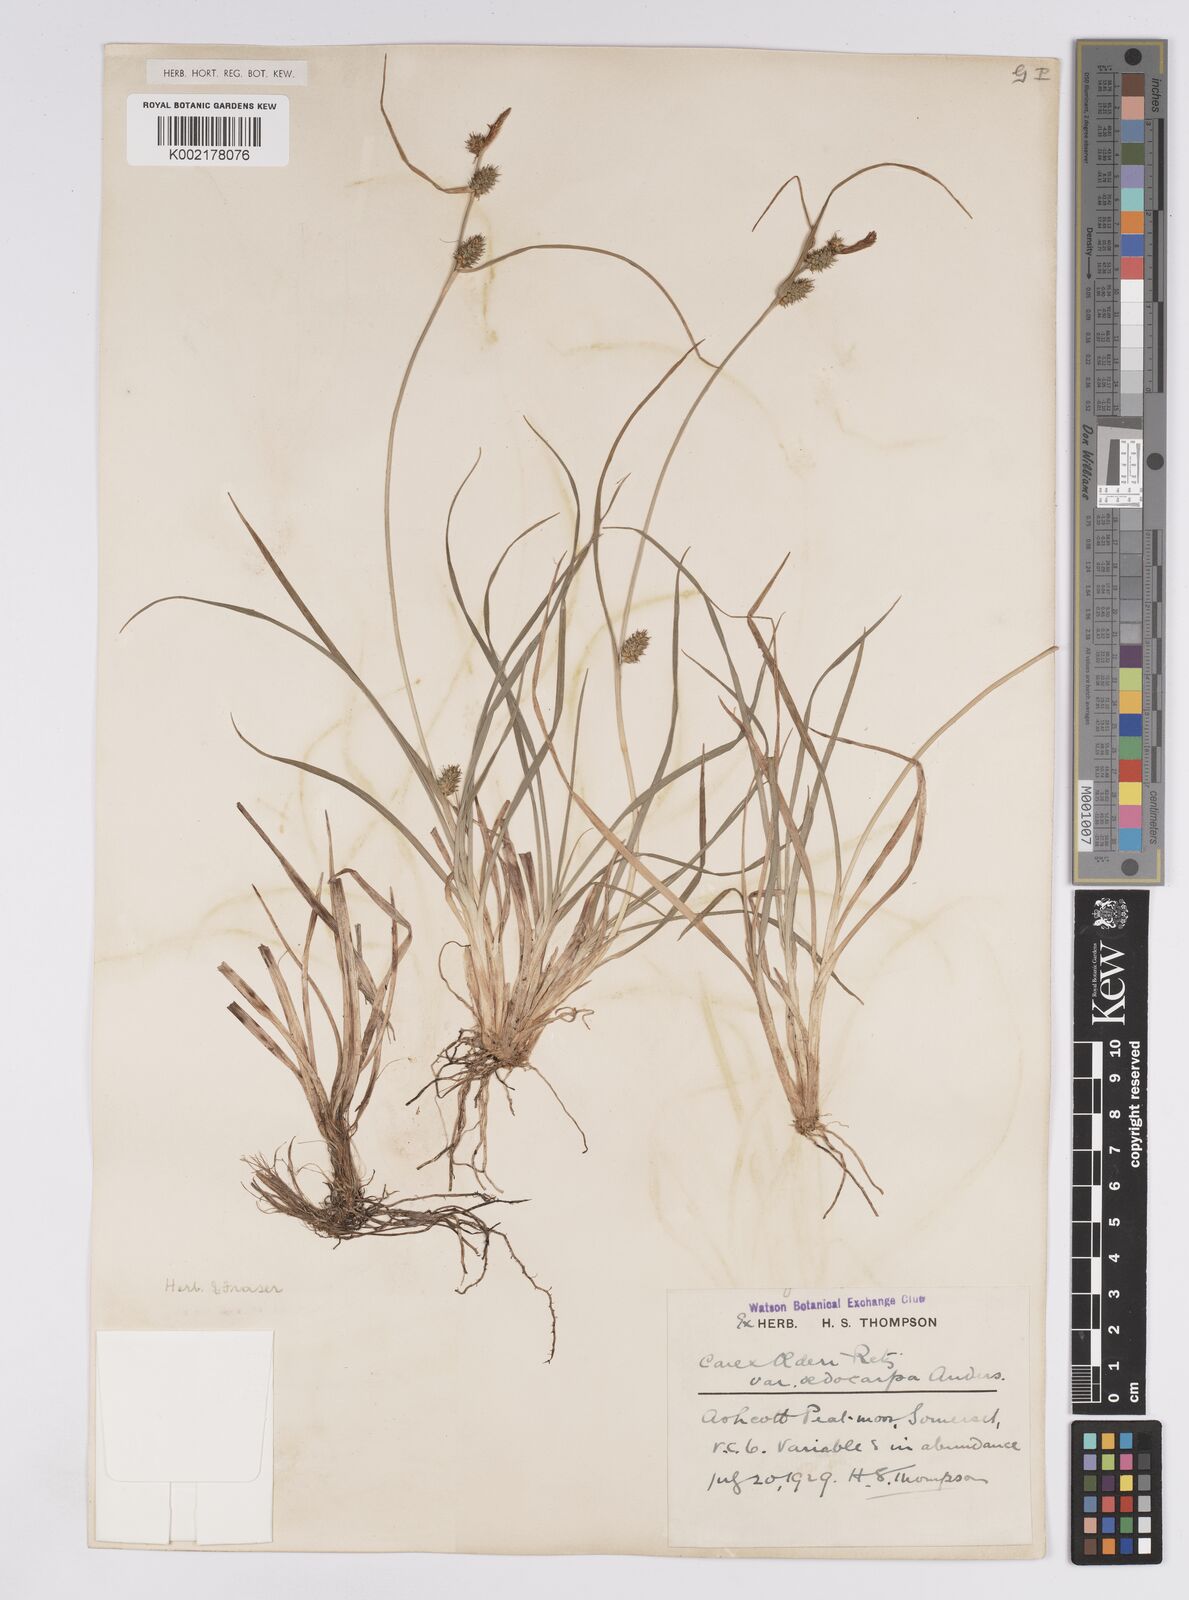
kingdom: Plantae
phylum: Tracheophyta
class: Liliopsida
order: Poales
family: Cyperaceae
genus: Carex
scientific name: Carex demissa
